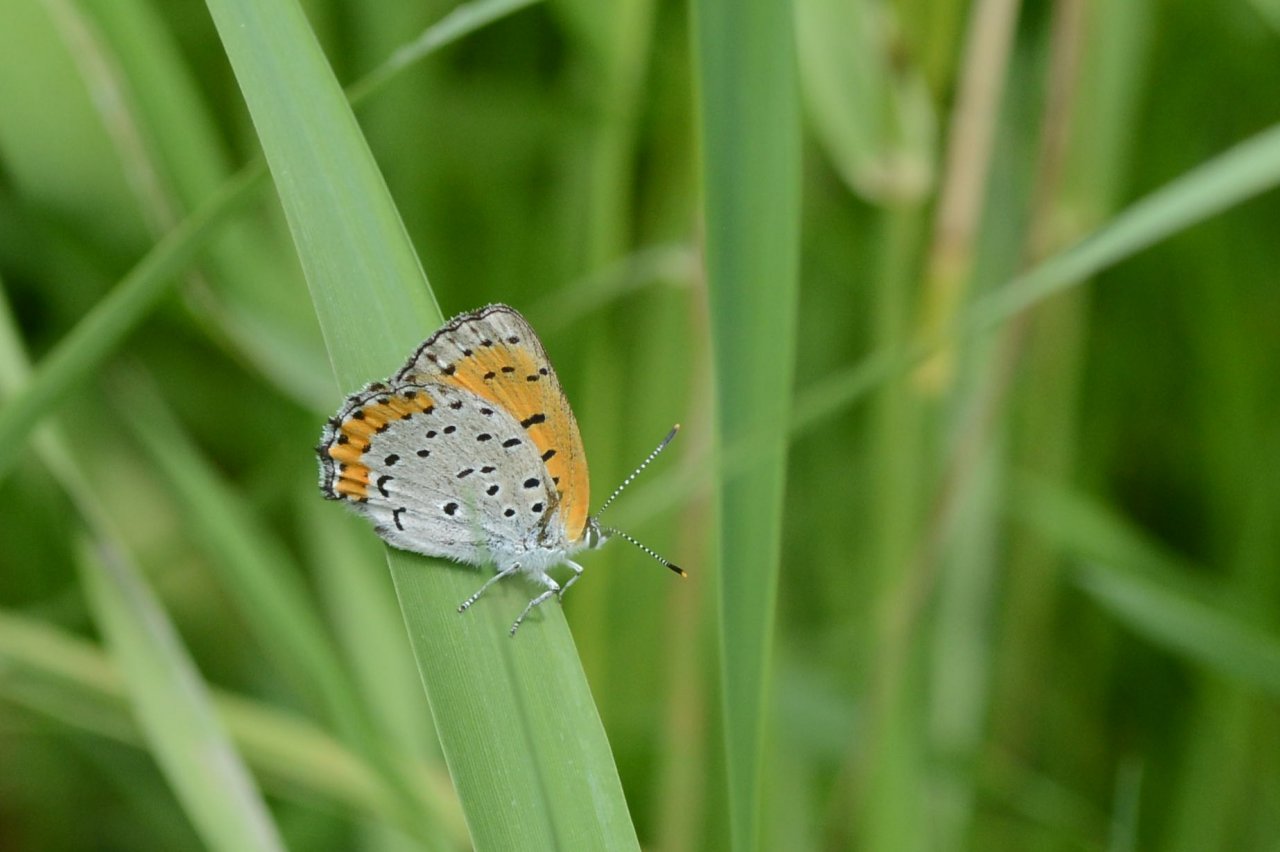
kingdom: Animalia
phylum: Arthropoda
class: Insecta
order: Lepidoptera
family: Sesiidae
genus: Sesia
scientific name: Sesia Lycaena hyllus
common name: Bronze Copper
